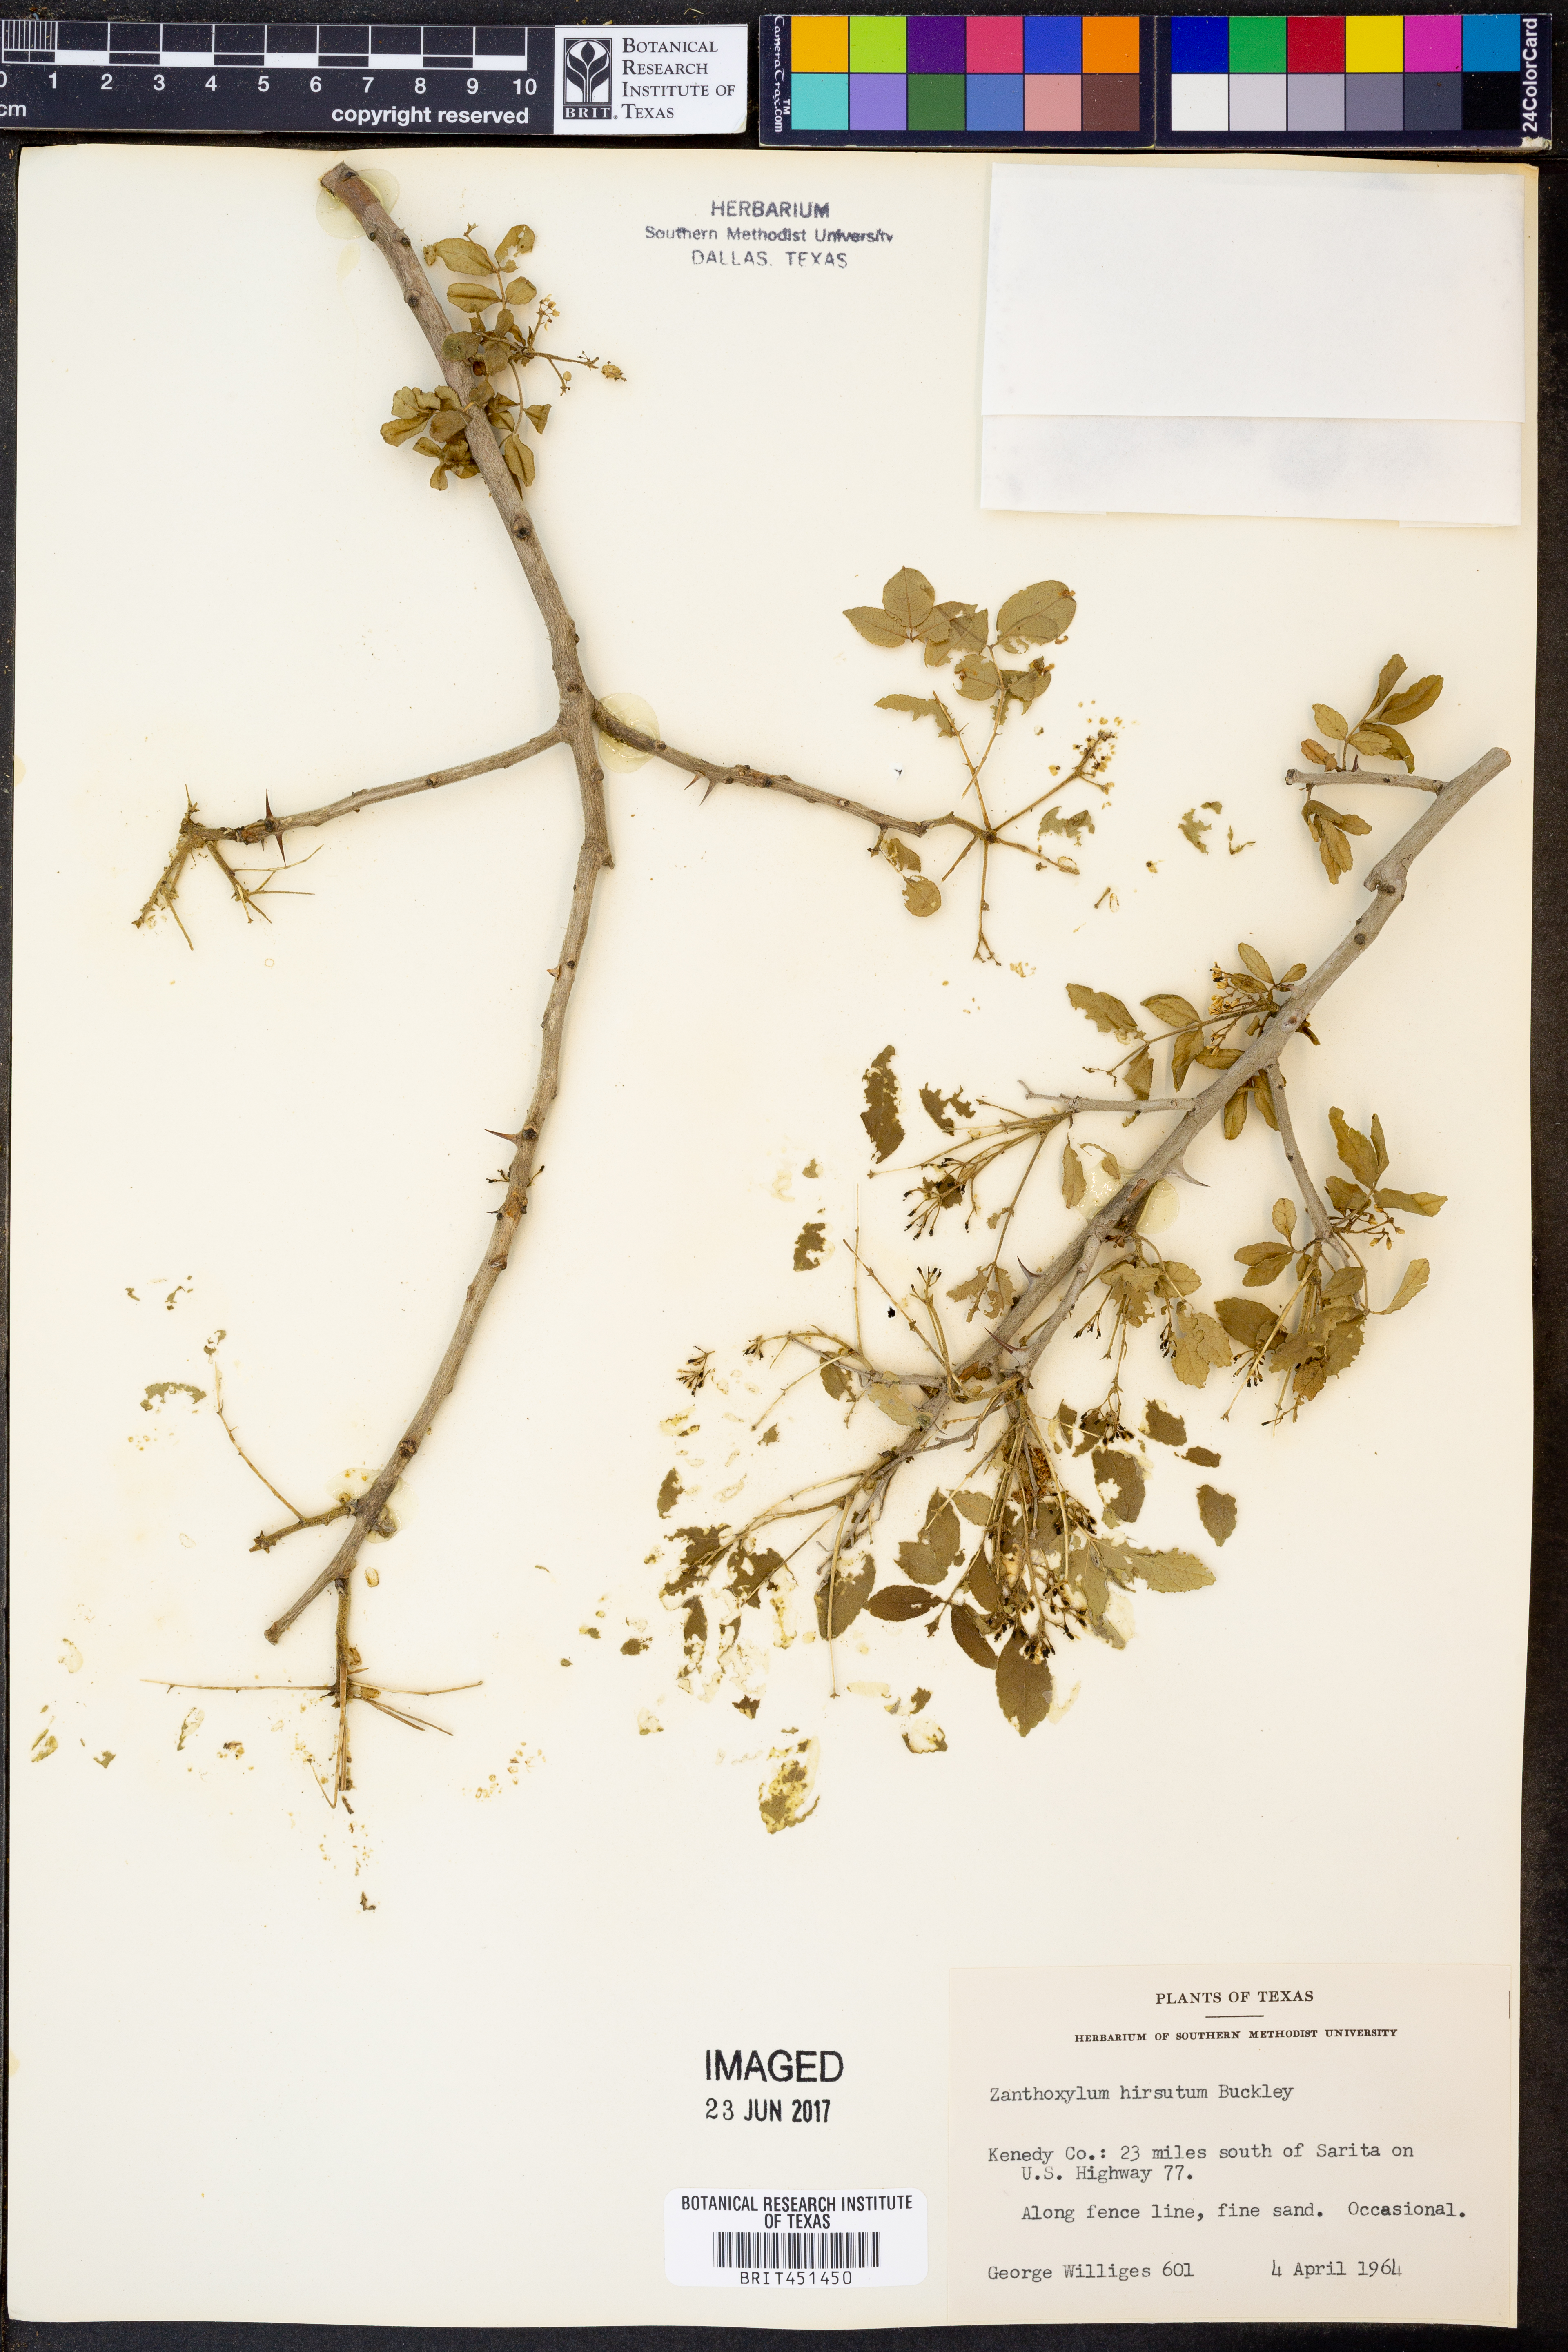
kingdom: Plantae
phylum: Tracheophyta
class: Magnoliopsida
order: Sapindales
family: Rutaceae
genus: Zanthoxylum
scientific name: Zanthoxylum clava-herculis
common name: Hercules'-club
